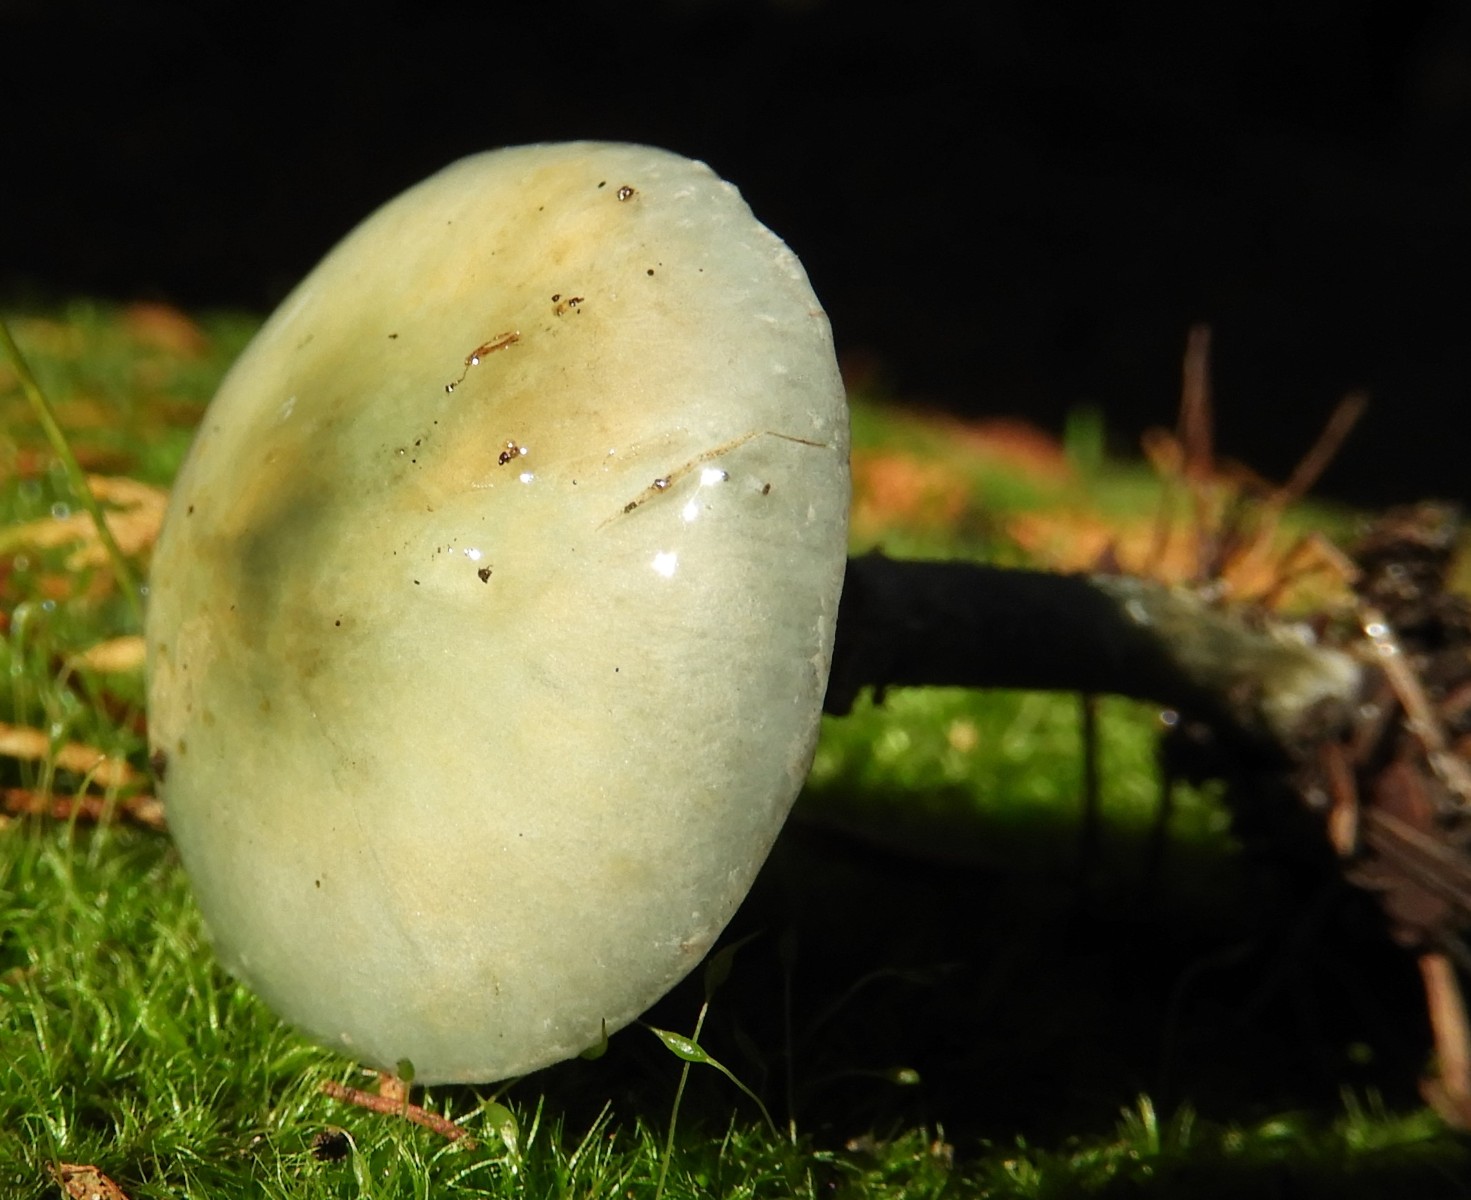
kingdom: Fungi
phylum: Basidiomycota
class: Agaricomycetes
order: Agaricales
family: Strophariaceae
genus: Stropharia
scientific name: Stropharia cyanea
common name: blågrøn bredblad
